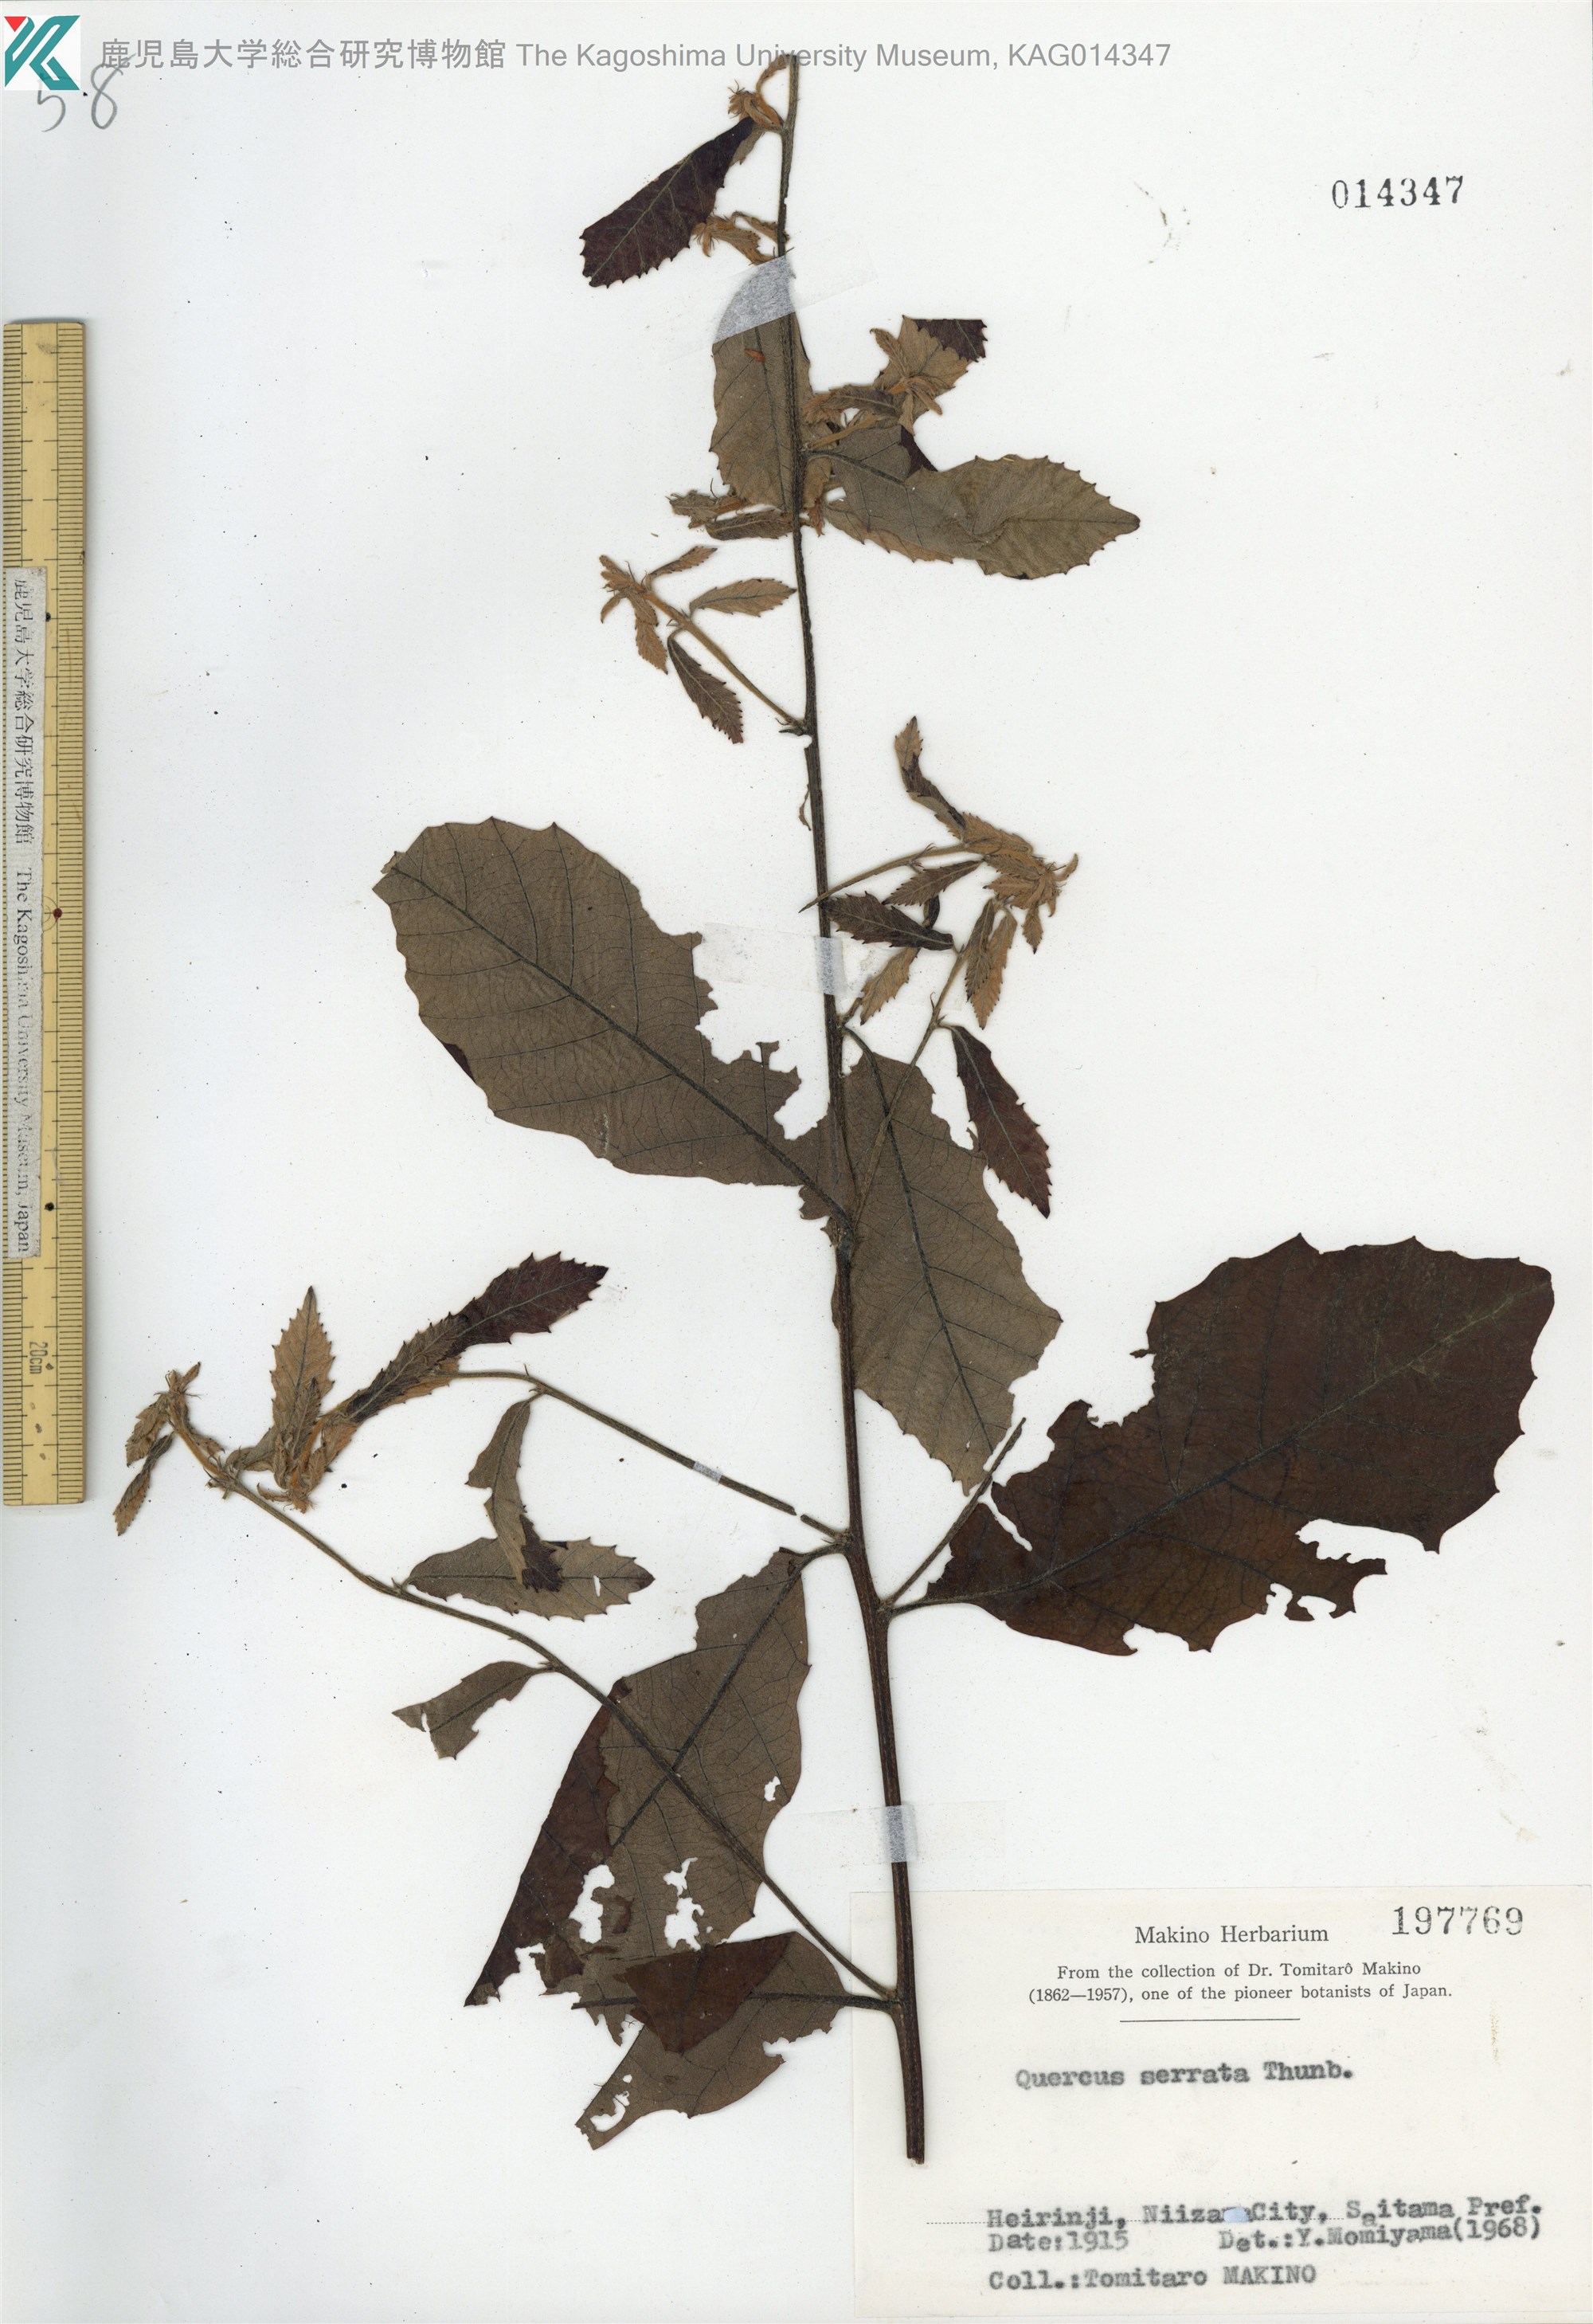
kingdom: Plantae
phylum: Tracheophyta
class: Magnoliopsida
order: Fagales
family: Fagaceae
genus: Quercus
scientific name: Quercus serrata
